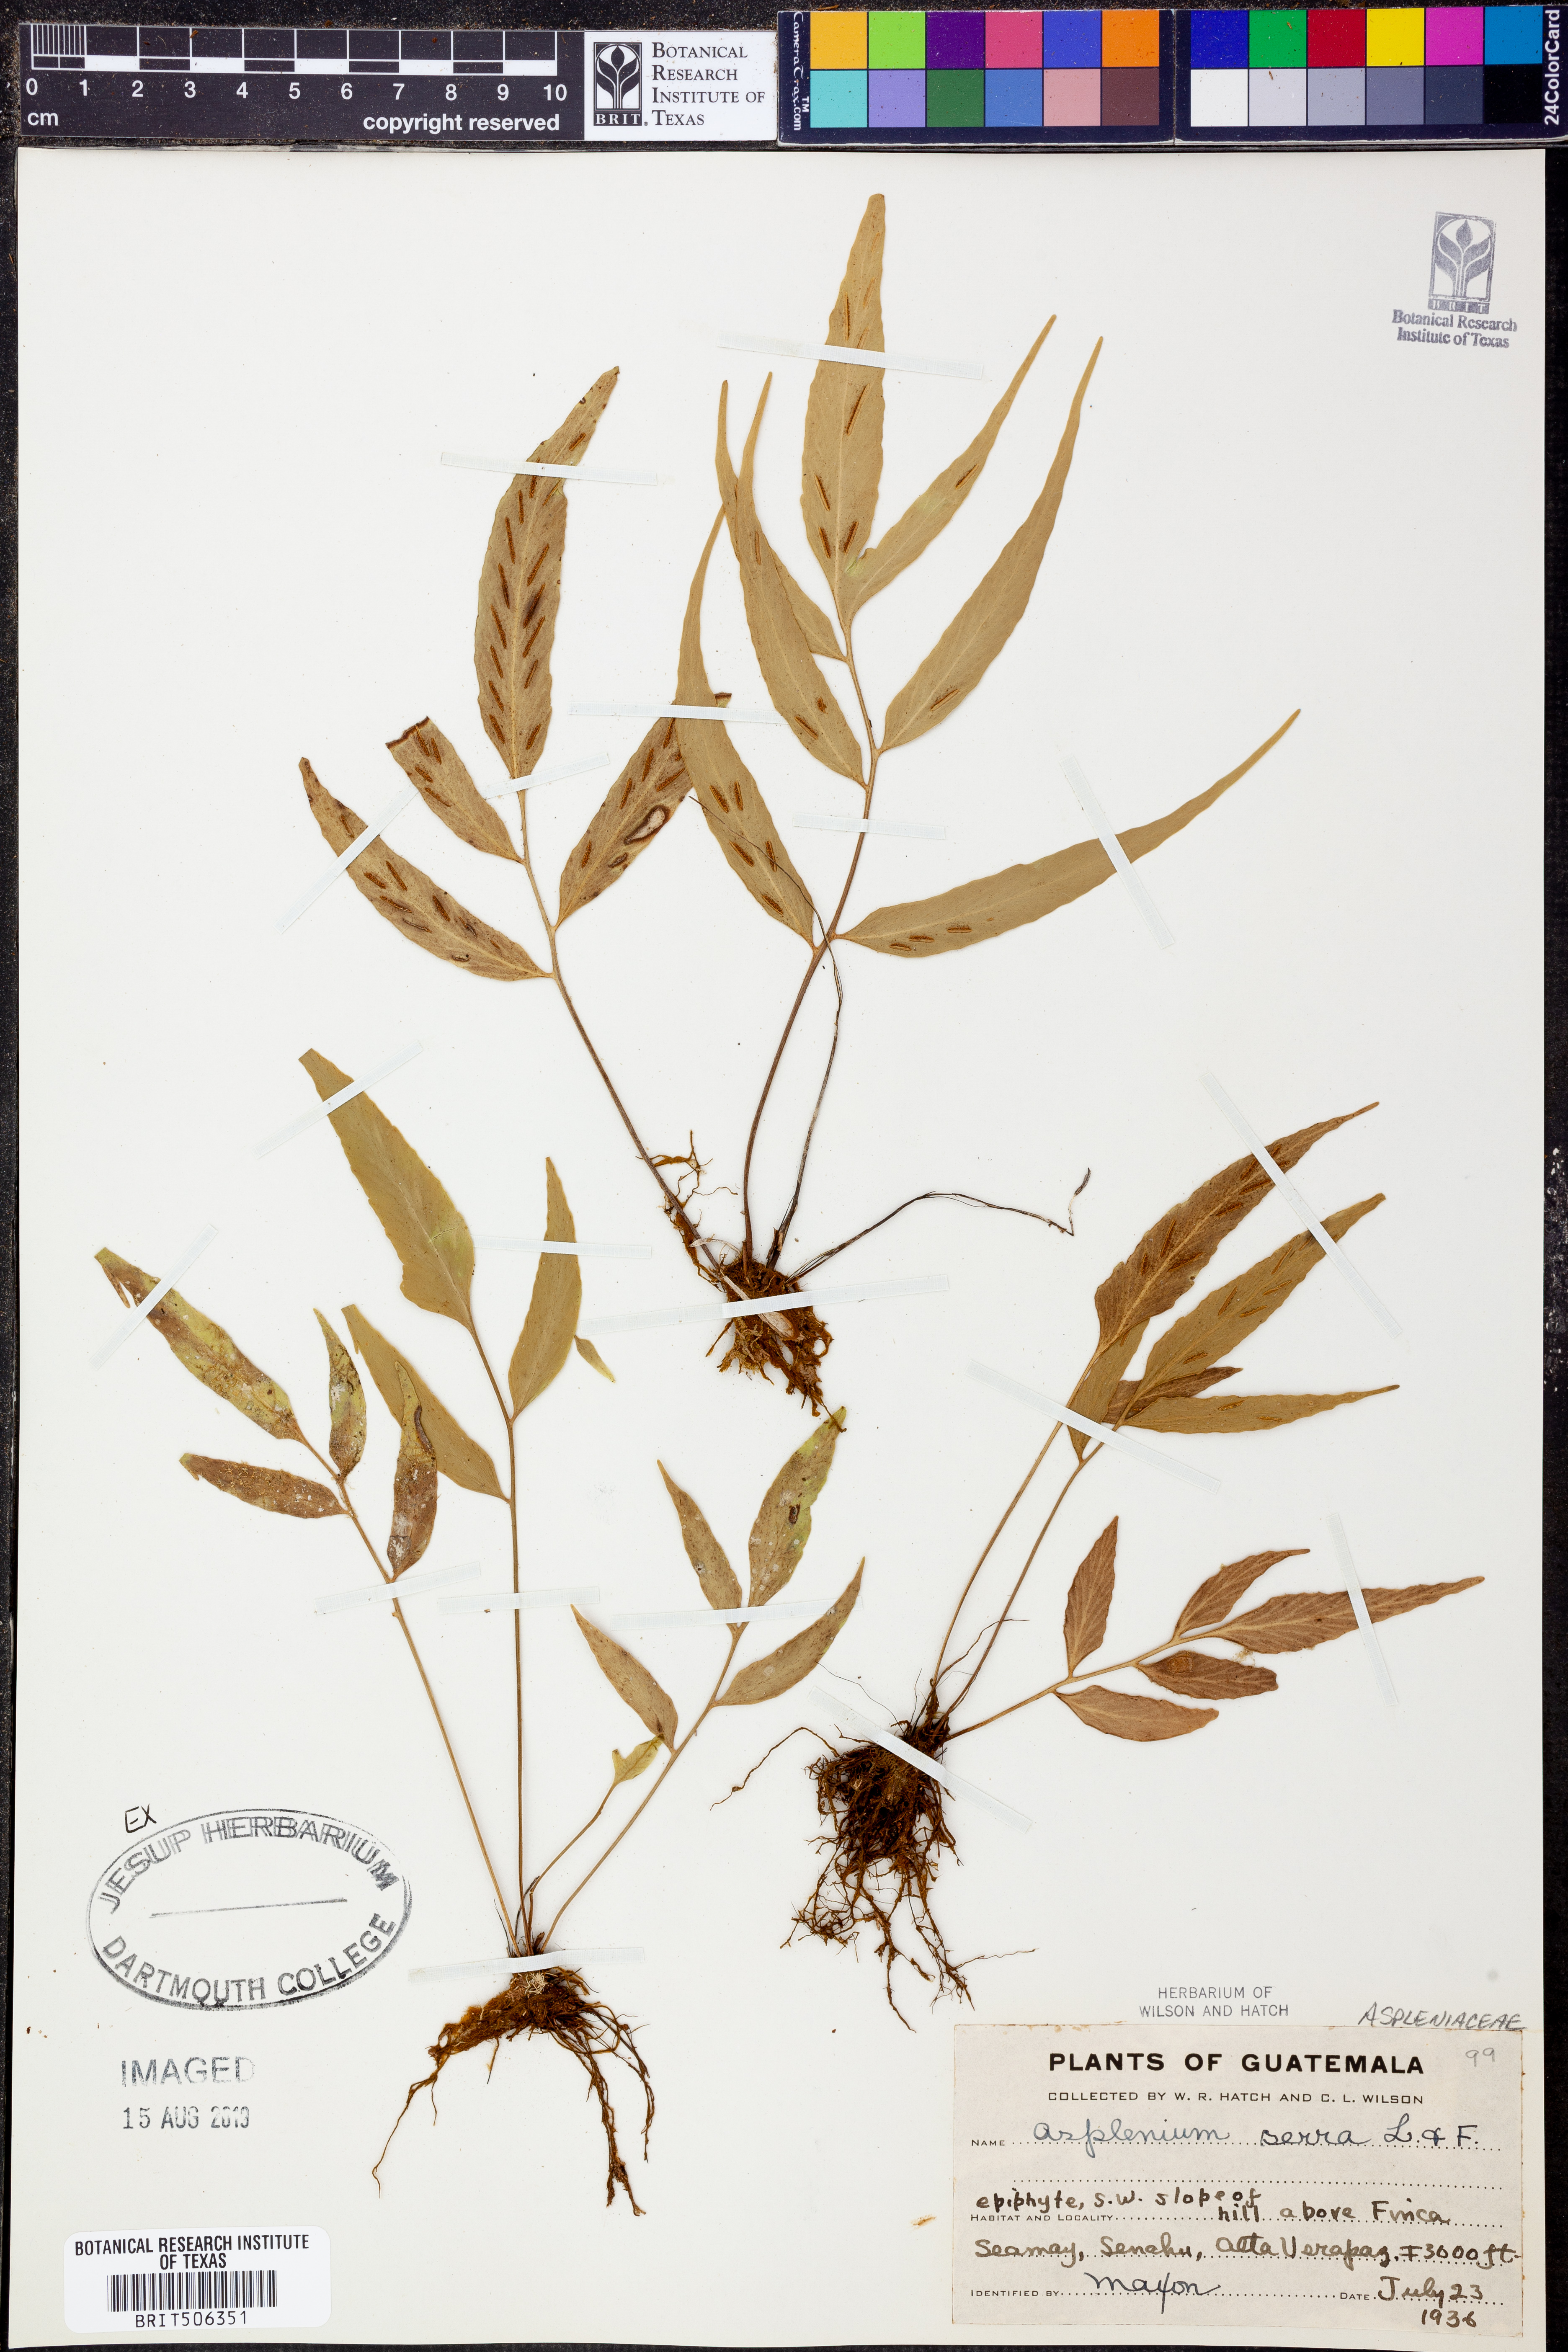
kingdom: Plantae
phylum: Tracheophyta
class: Polypodiopsida
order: Polypodiales
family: Aspleniaceae
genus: Asplenium
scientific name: Asplenium serra
